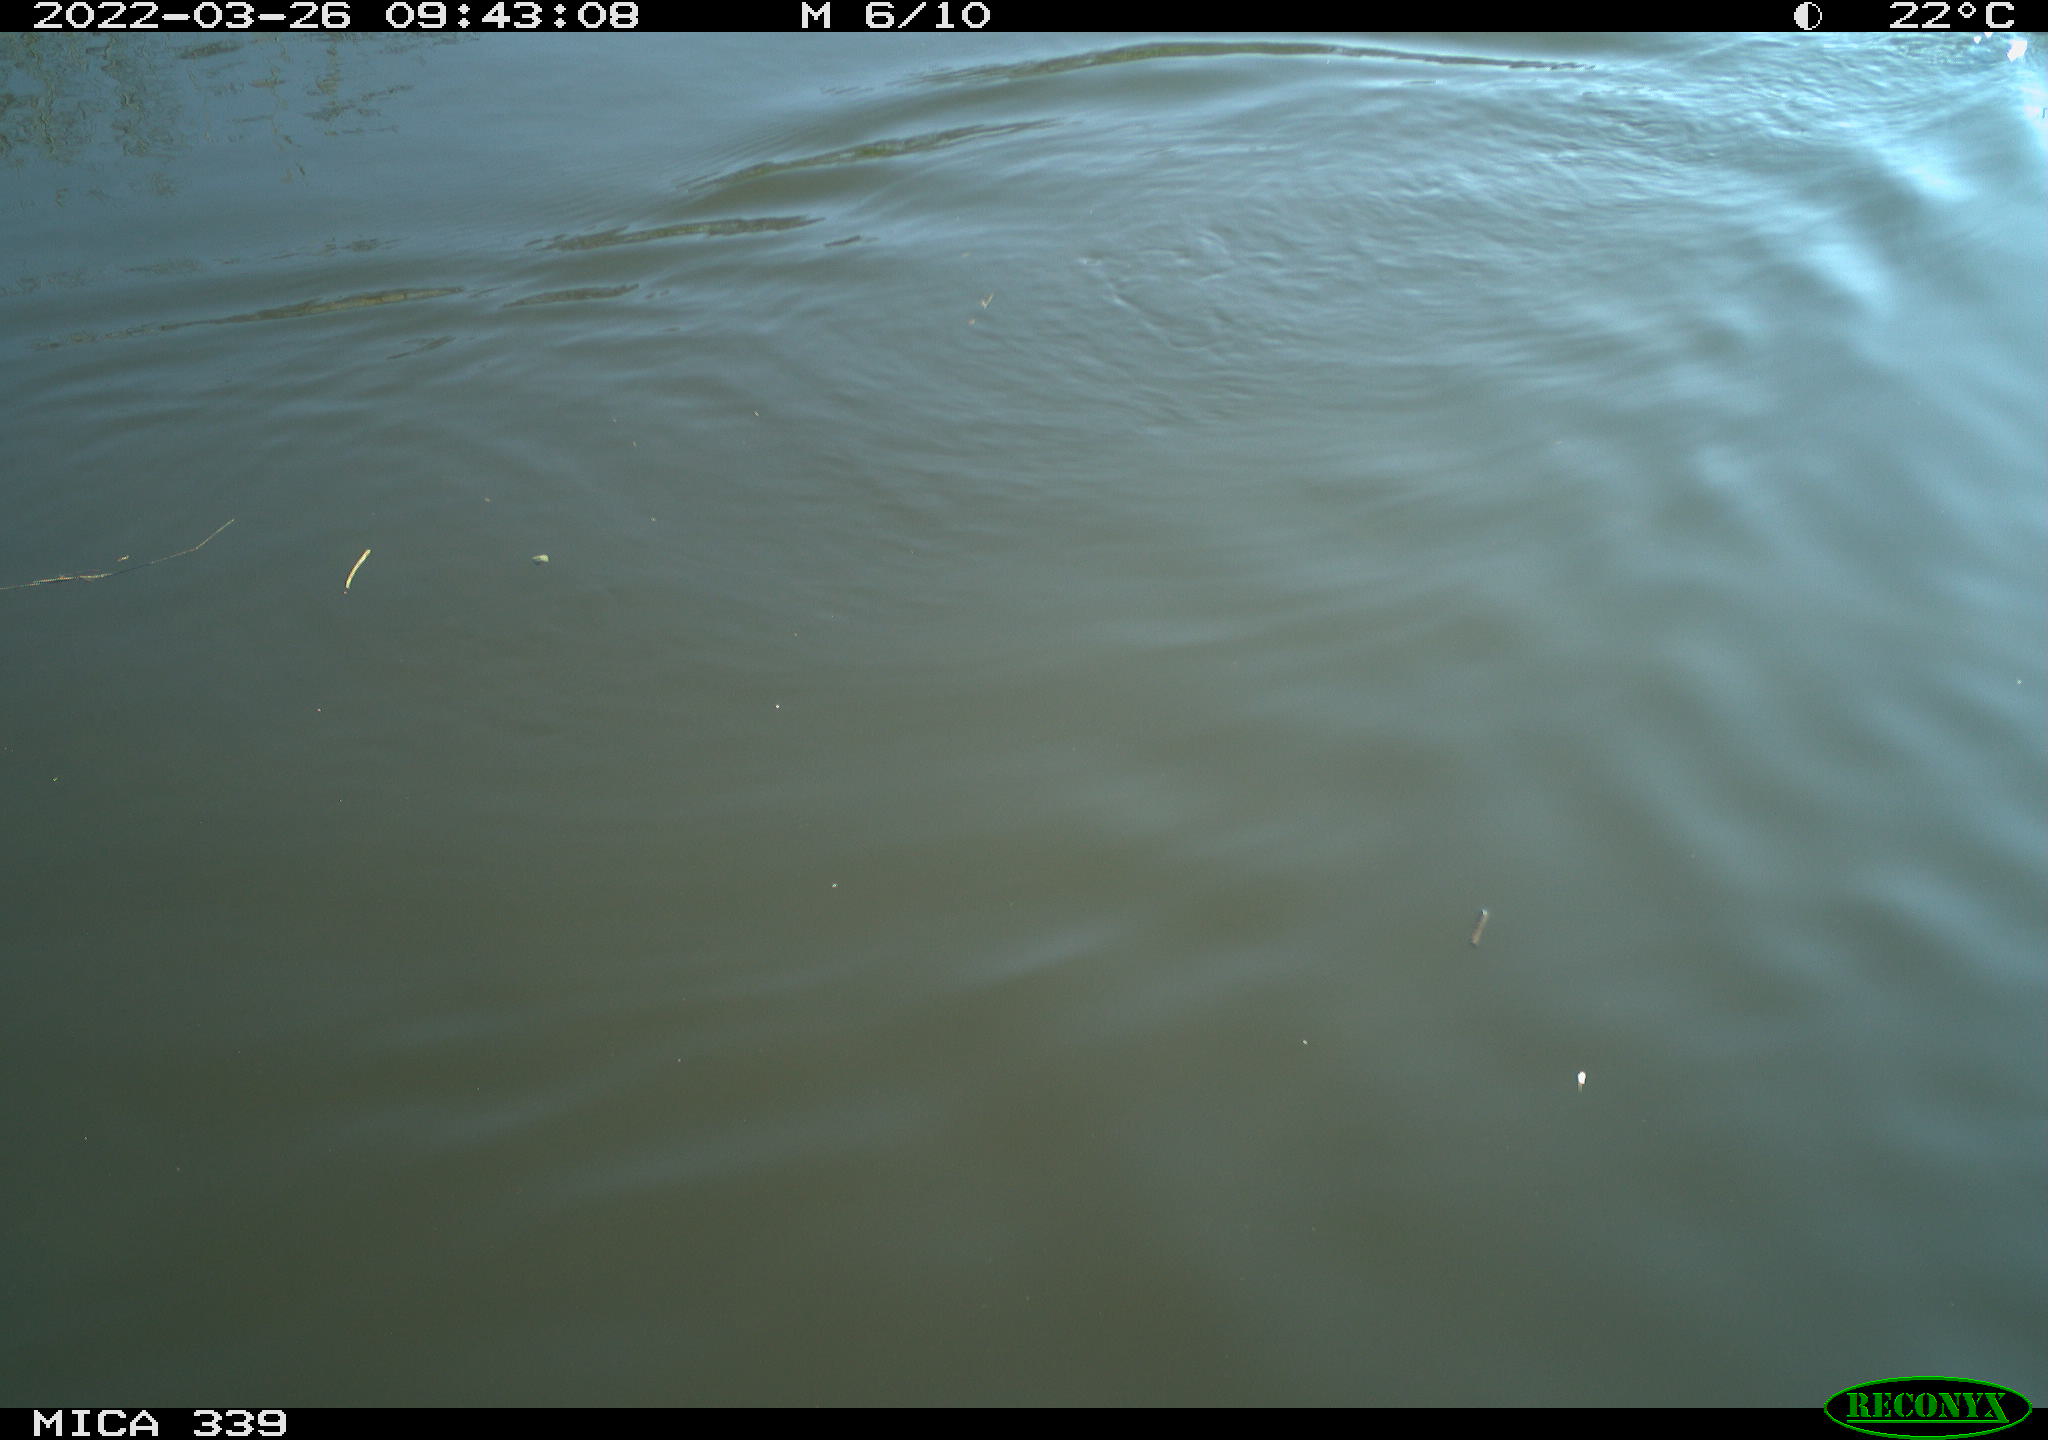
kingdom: Animalia
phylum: Chordata
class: Aves
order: Gruiformes
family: Rallidae
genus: Fulica
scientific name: Fulica atra
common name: Eurasian coot
